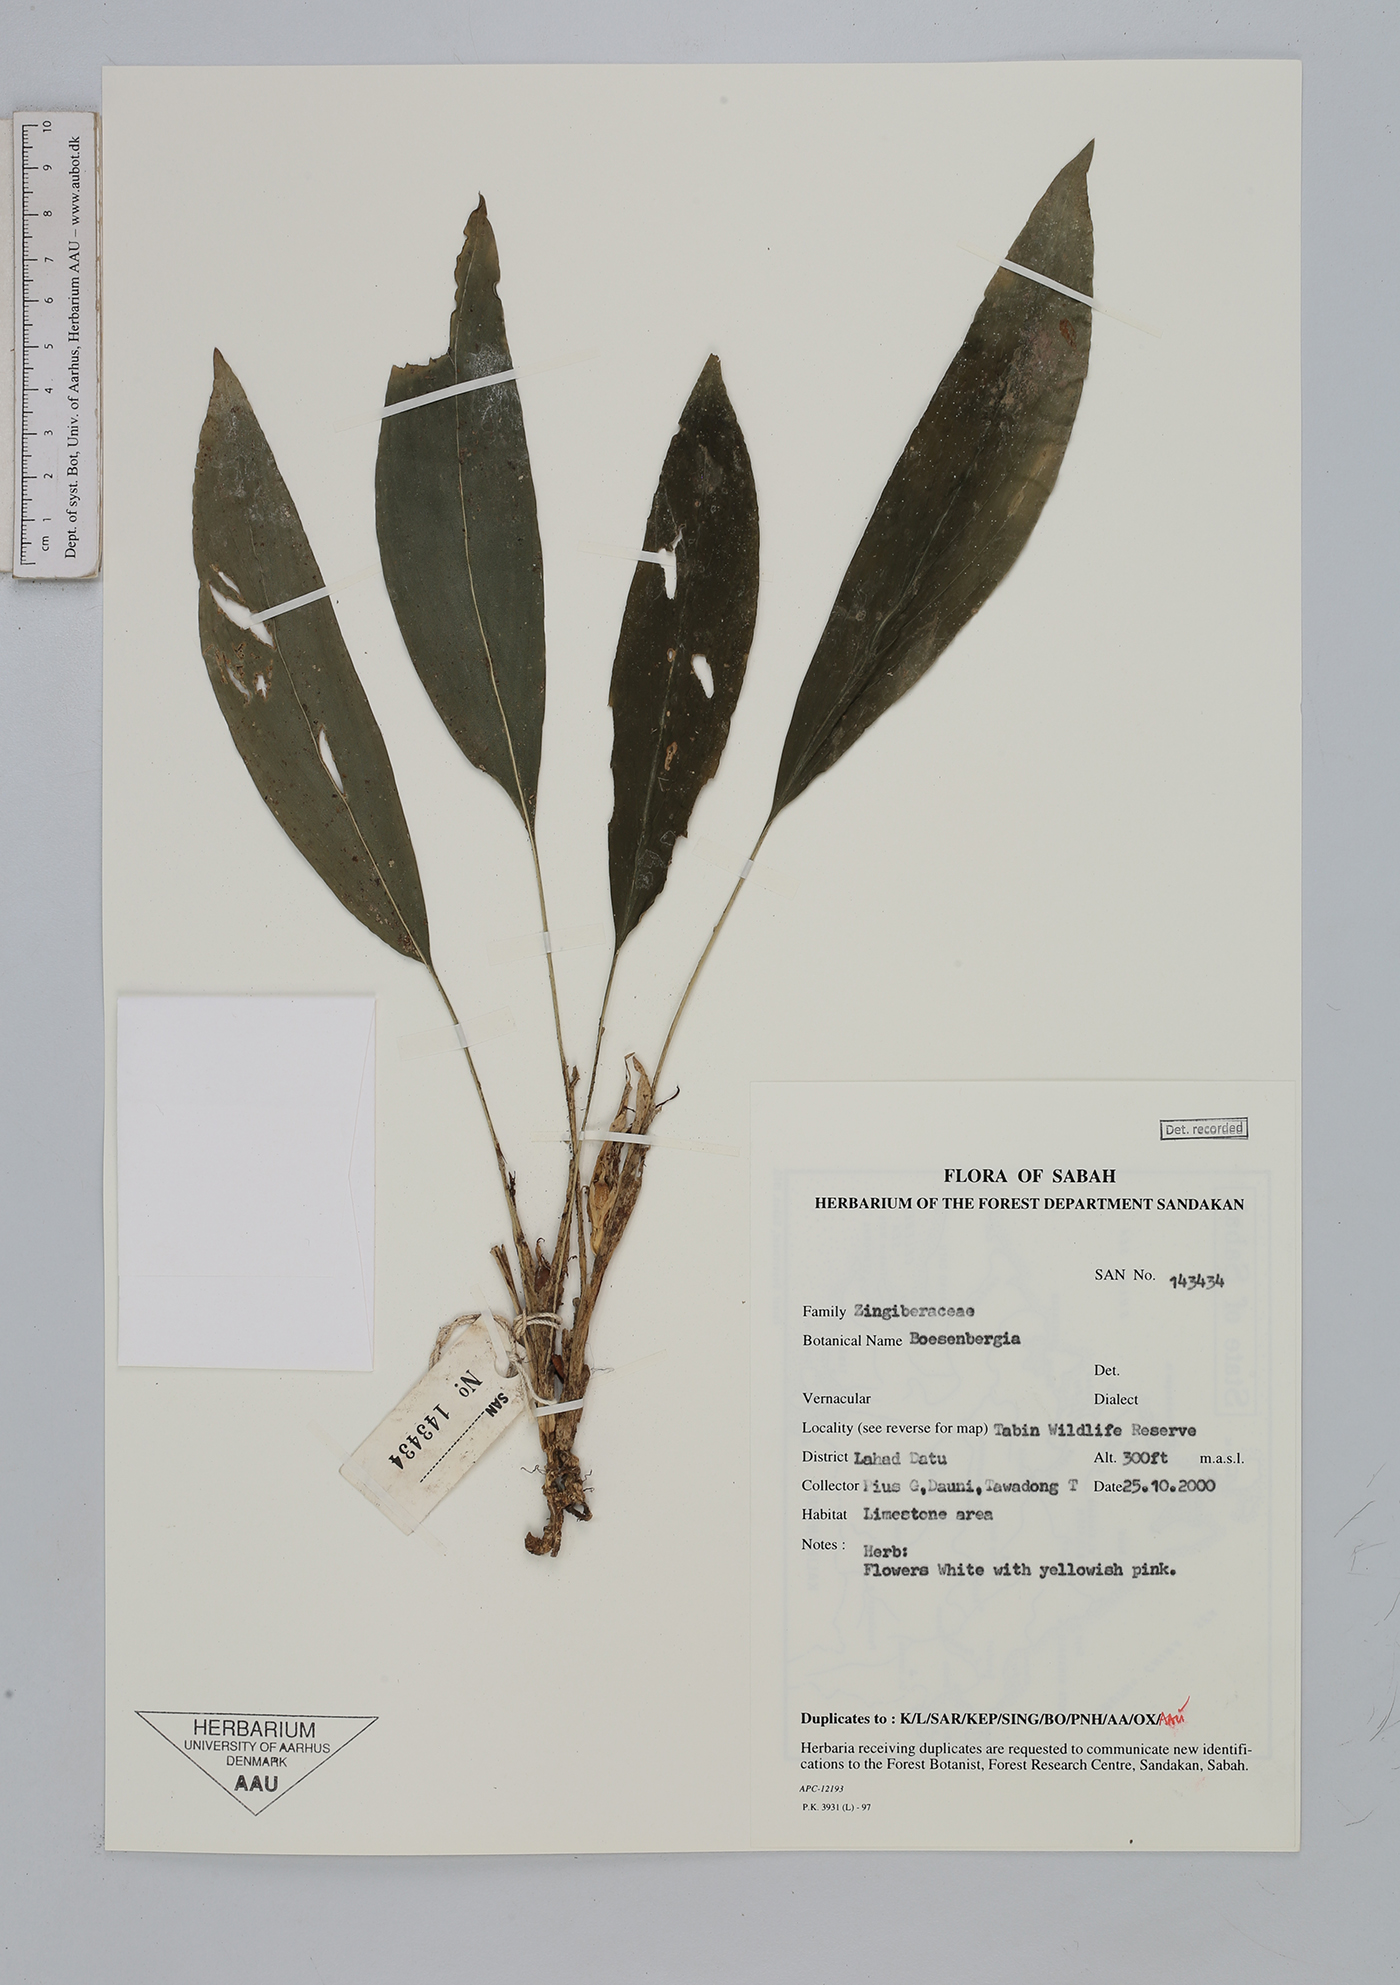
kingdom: Plantae
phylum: Tracheophyta
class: Liliopsida
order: Zingiberales
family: Zingiberaceae
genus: Boesenbergia
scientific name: Boesenbergia
